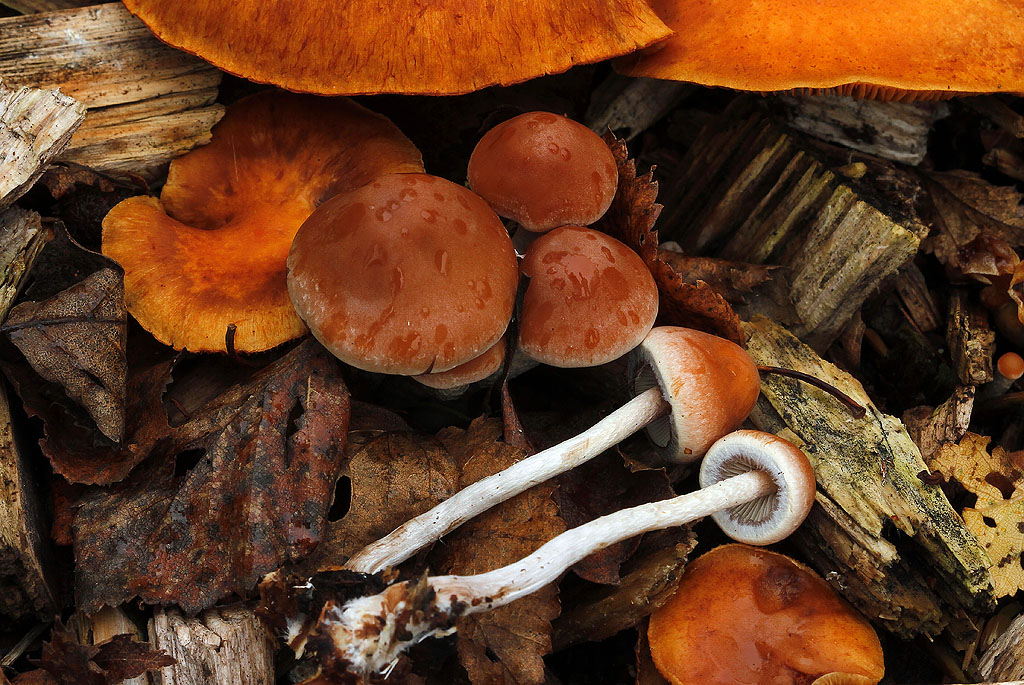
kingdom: Fungi
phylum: Basidiomycota
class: Agaricomycetes
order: Agaricales
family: Strophariaceae
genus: Hypholoma
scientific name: Hypholoma marginatum
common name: enlig svovlhat
